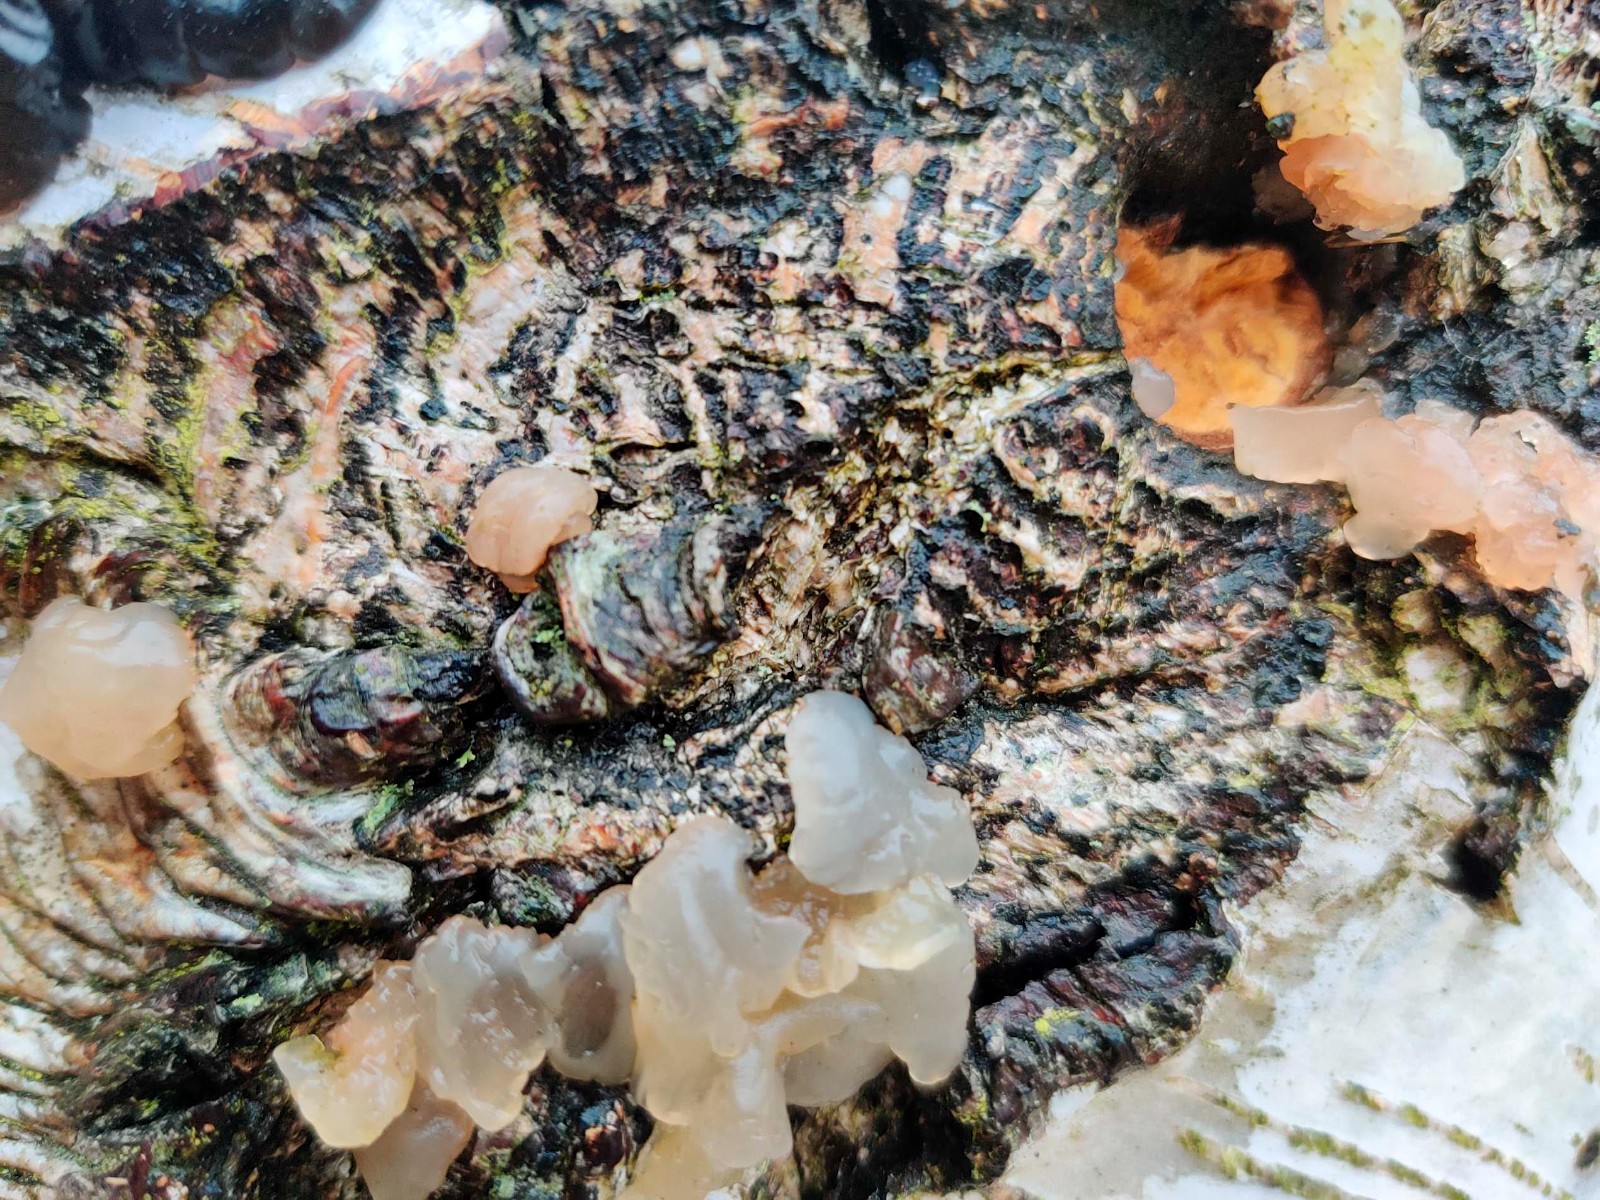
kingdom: Fungi
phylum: Basidiomycota
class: Agaricomycetes
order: Auriculariales
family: Hyaloriaceae
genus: Myxarium
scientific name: Myxarium hyalinum
